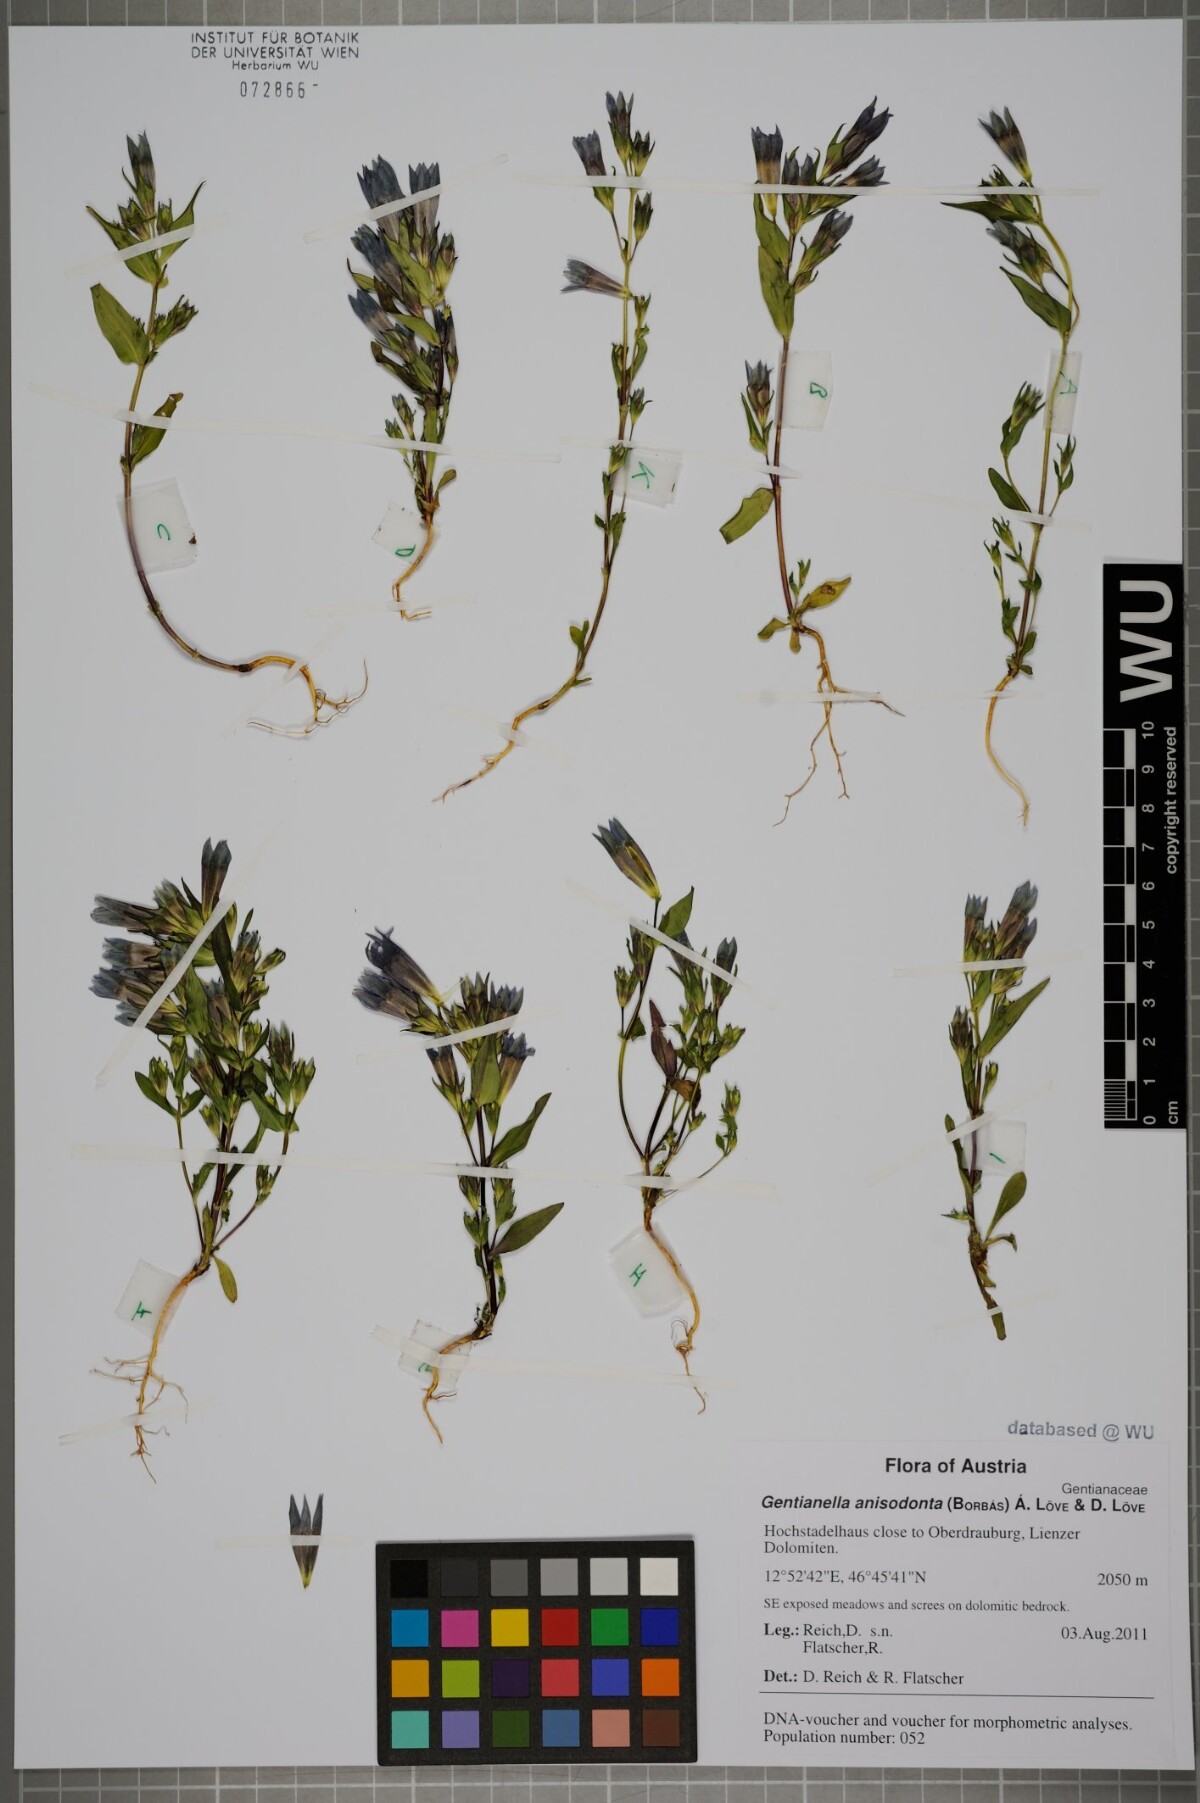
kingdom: Plantae
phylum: Tracheophyta
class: Magnoliopsida
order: Gentianales
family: Gentianaceae
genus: Gentianella
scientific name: Gentianella anisodonta
